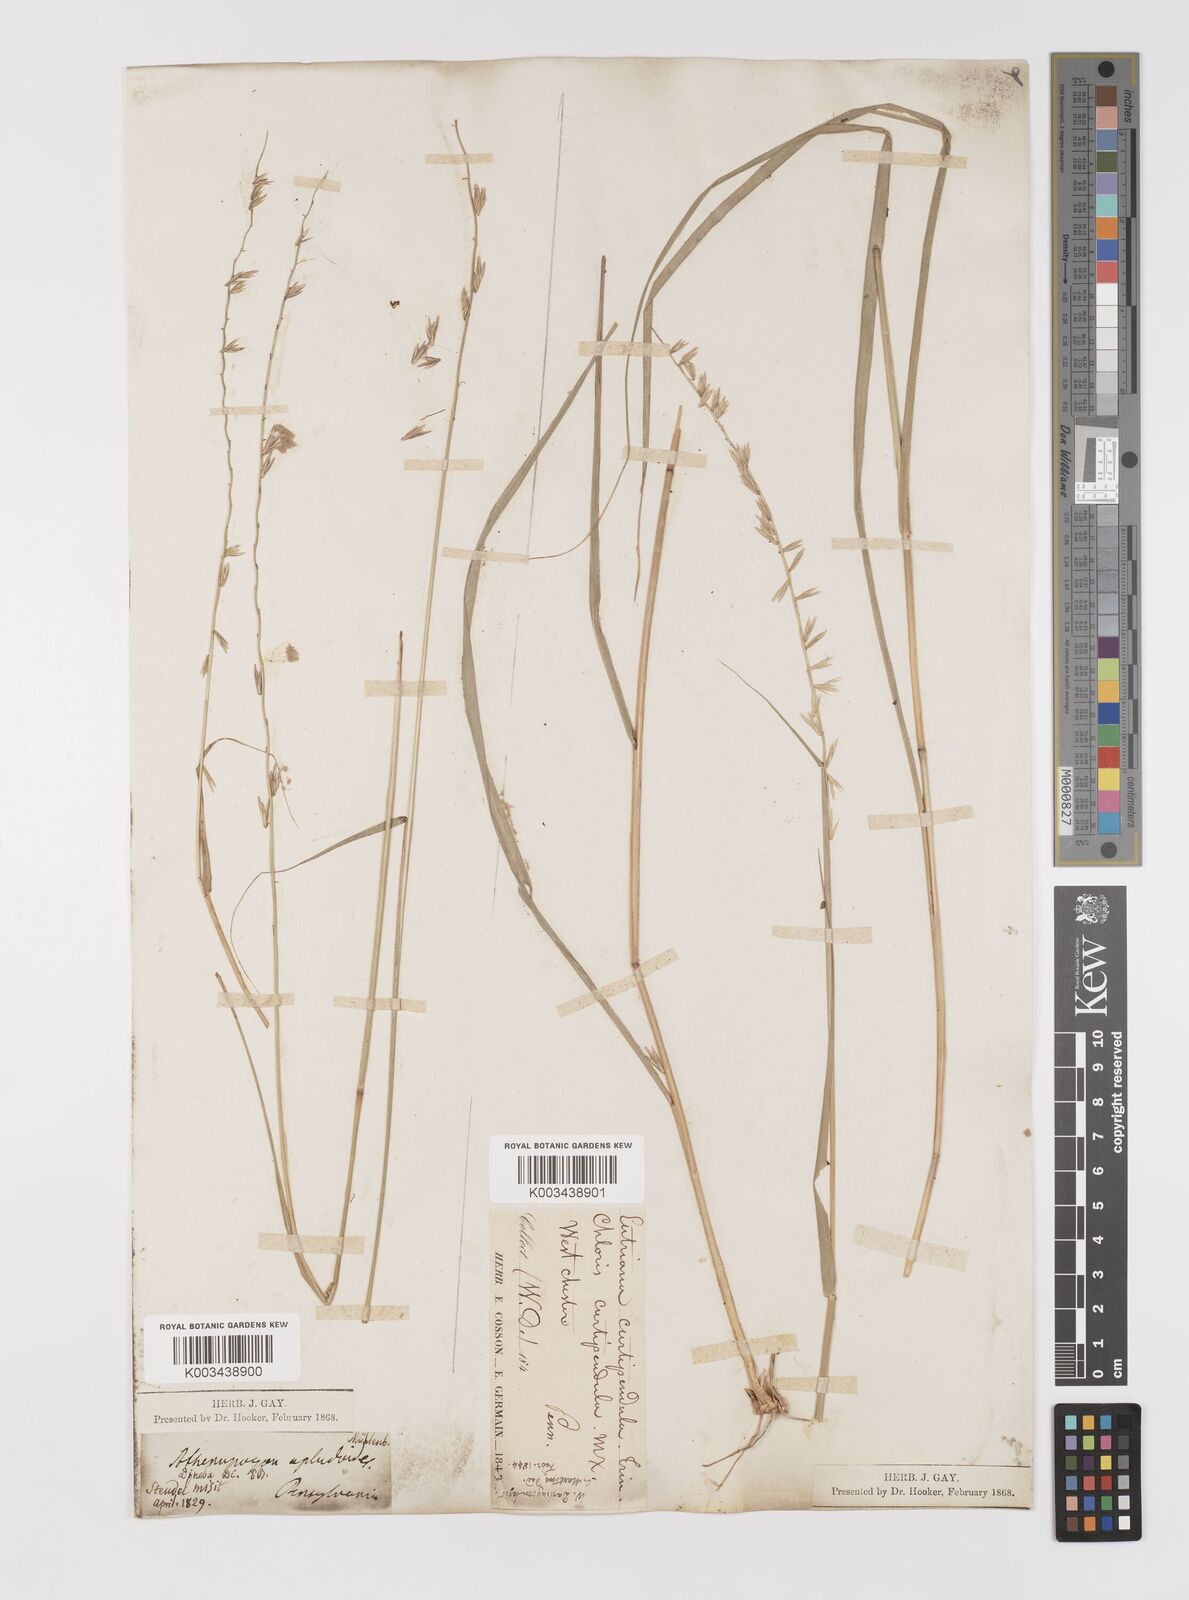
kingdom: Plantae
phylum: Tracheophyta
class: Liliopsida
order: Poales
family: Poaceae
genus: Bouteloua
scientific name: Bouteloua curtipendula
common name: Side-oats grama
